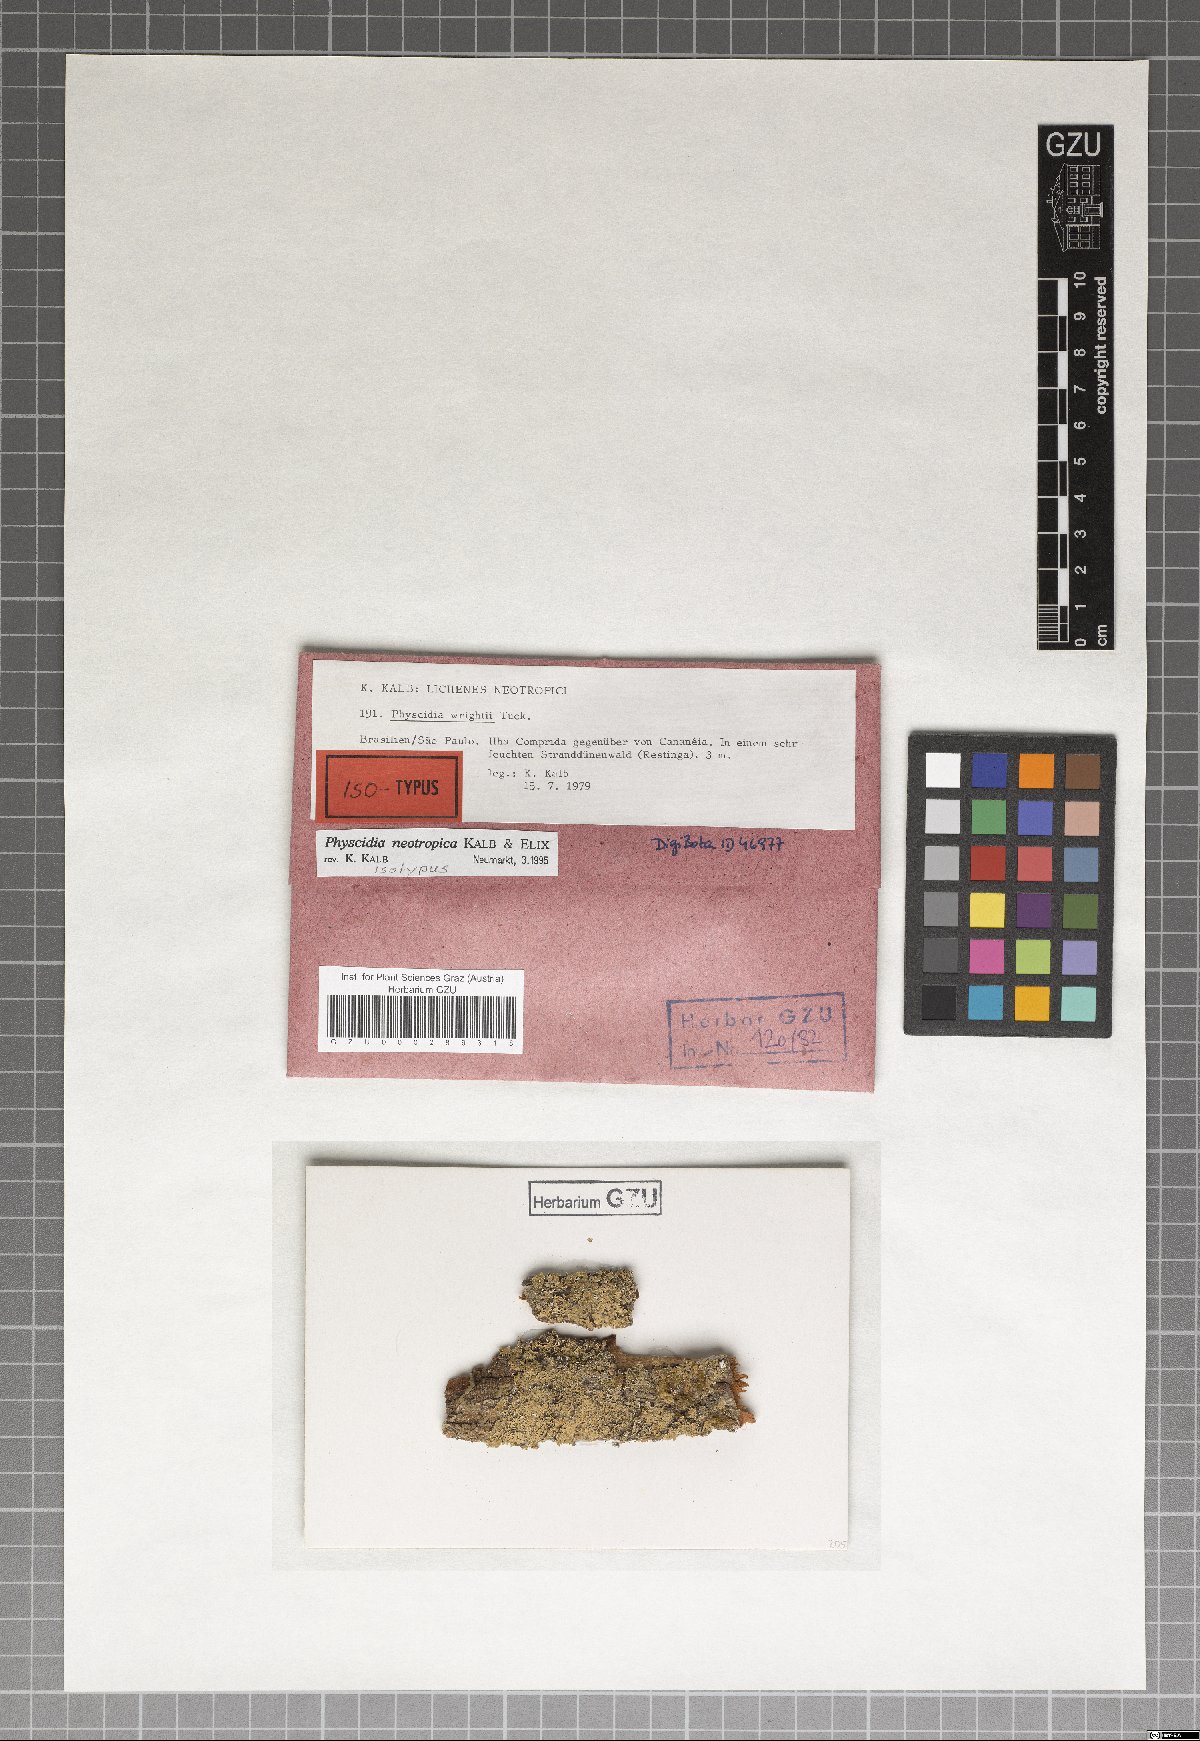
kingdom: Fungi
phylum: Ascomycota
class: Lecanoromycetes
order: Lecanorales
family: Ramalinaceae
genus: Physcidia
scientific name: Physcidia neotropica
